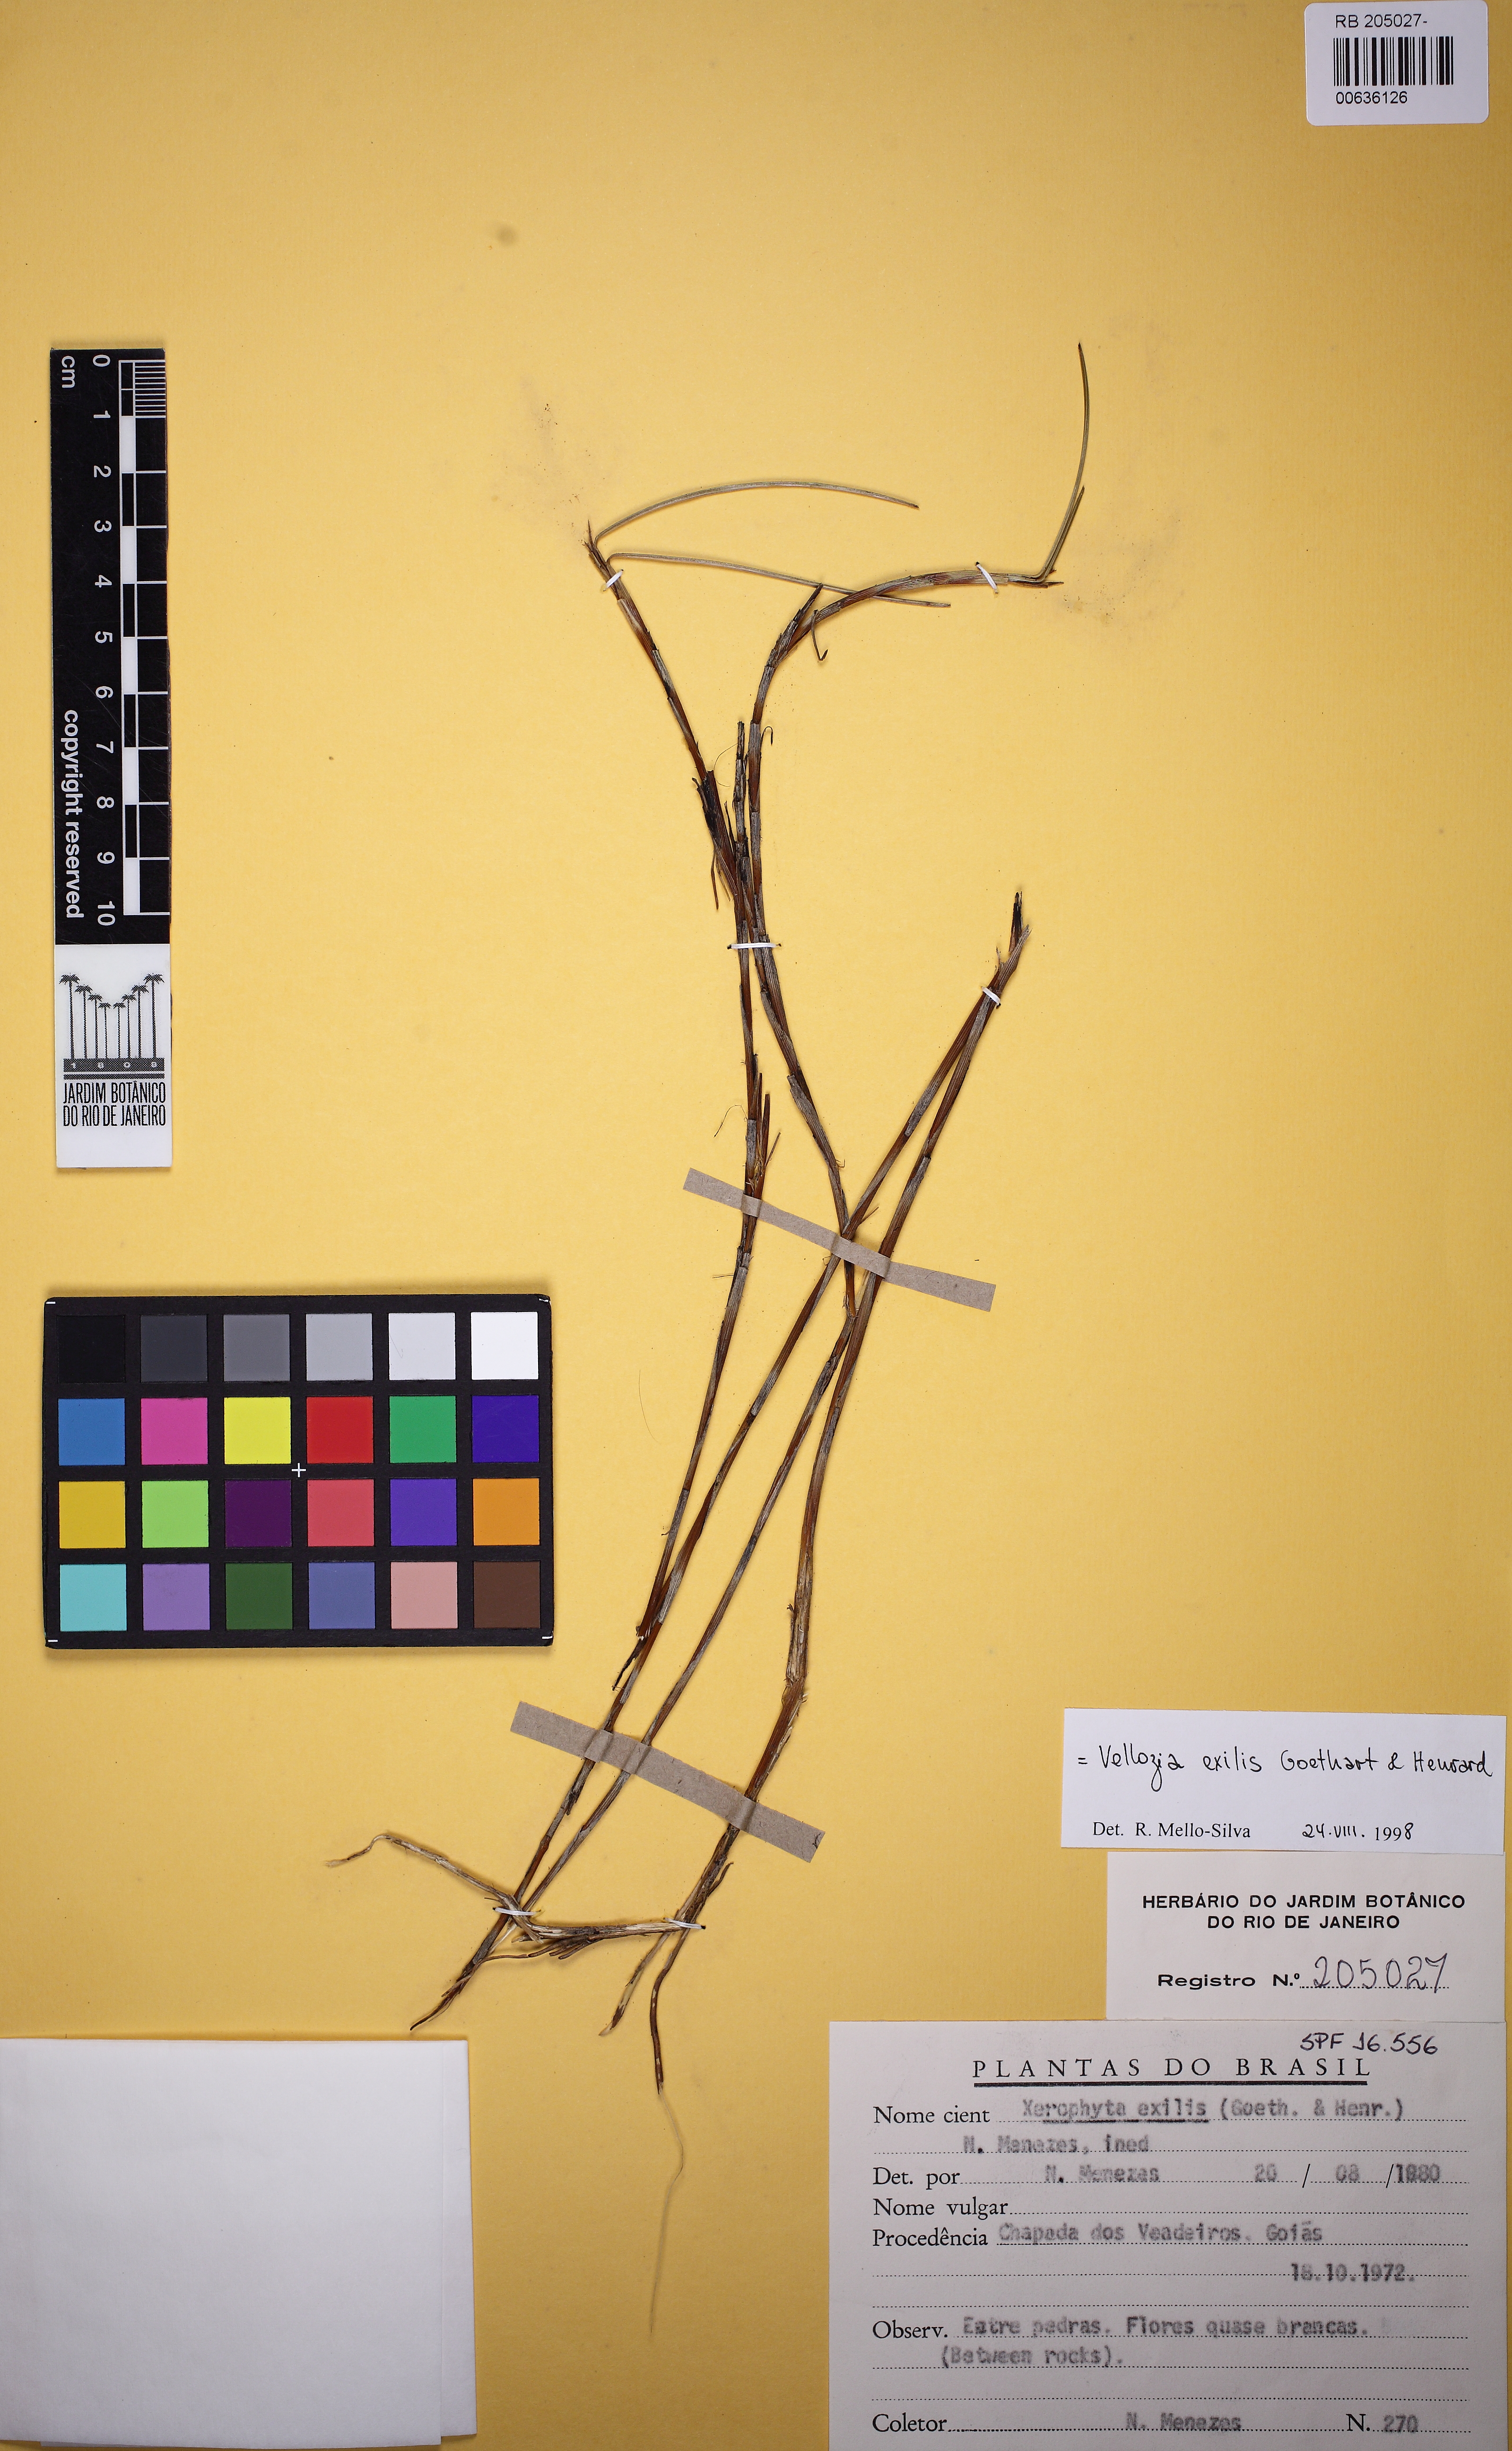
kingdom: Plantae
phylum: Tracheophyta
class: Liliopsida
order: Pandanales
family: Velloziaceae
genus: Vellozia
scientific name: Vellozia exilis
